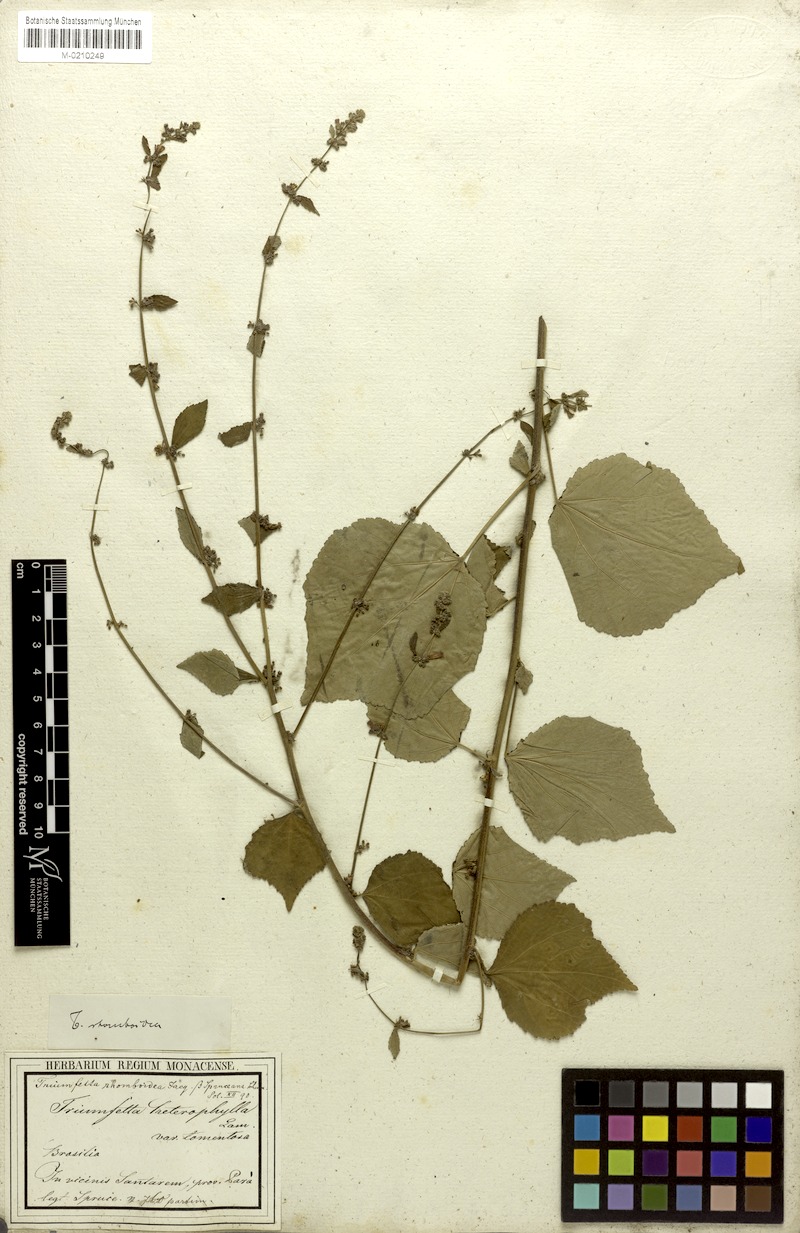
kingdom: Plantae
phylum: Tracheophyta
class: Magnoliopsida
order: Malvales
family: Malvaceae
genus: Triumfetta
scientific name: Triumfetta rhomboidea
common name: Diamond burbark
